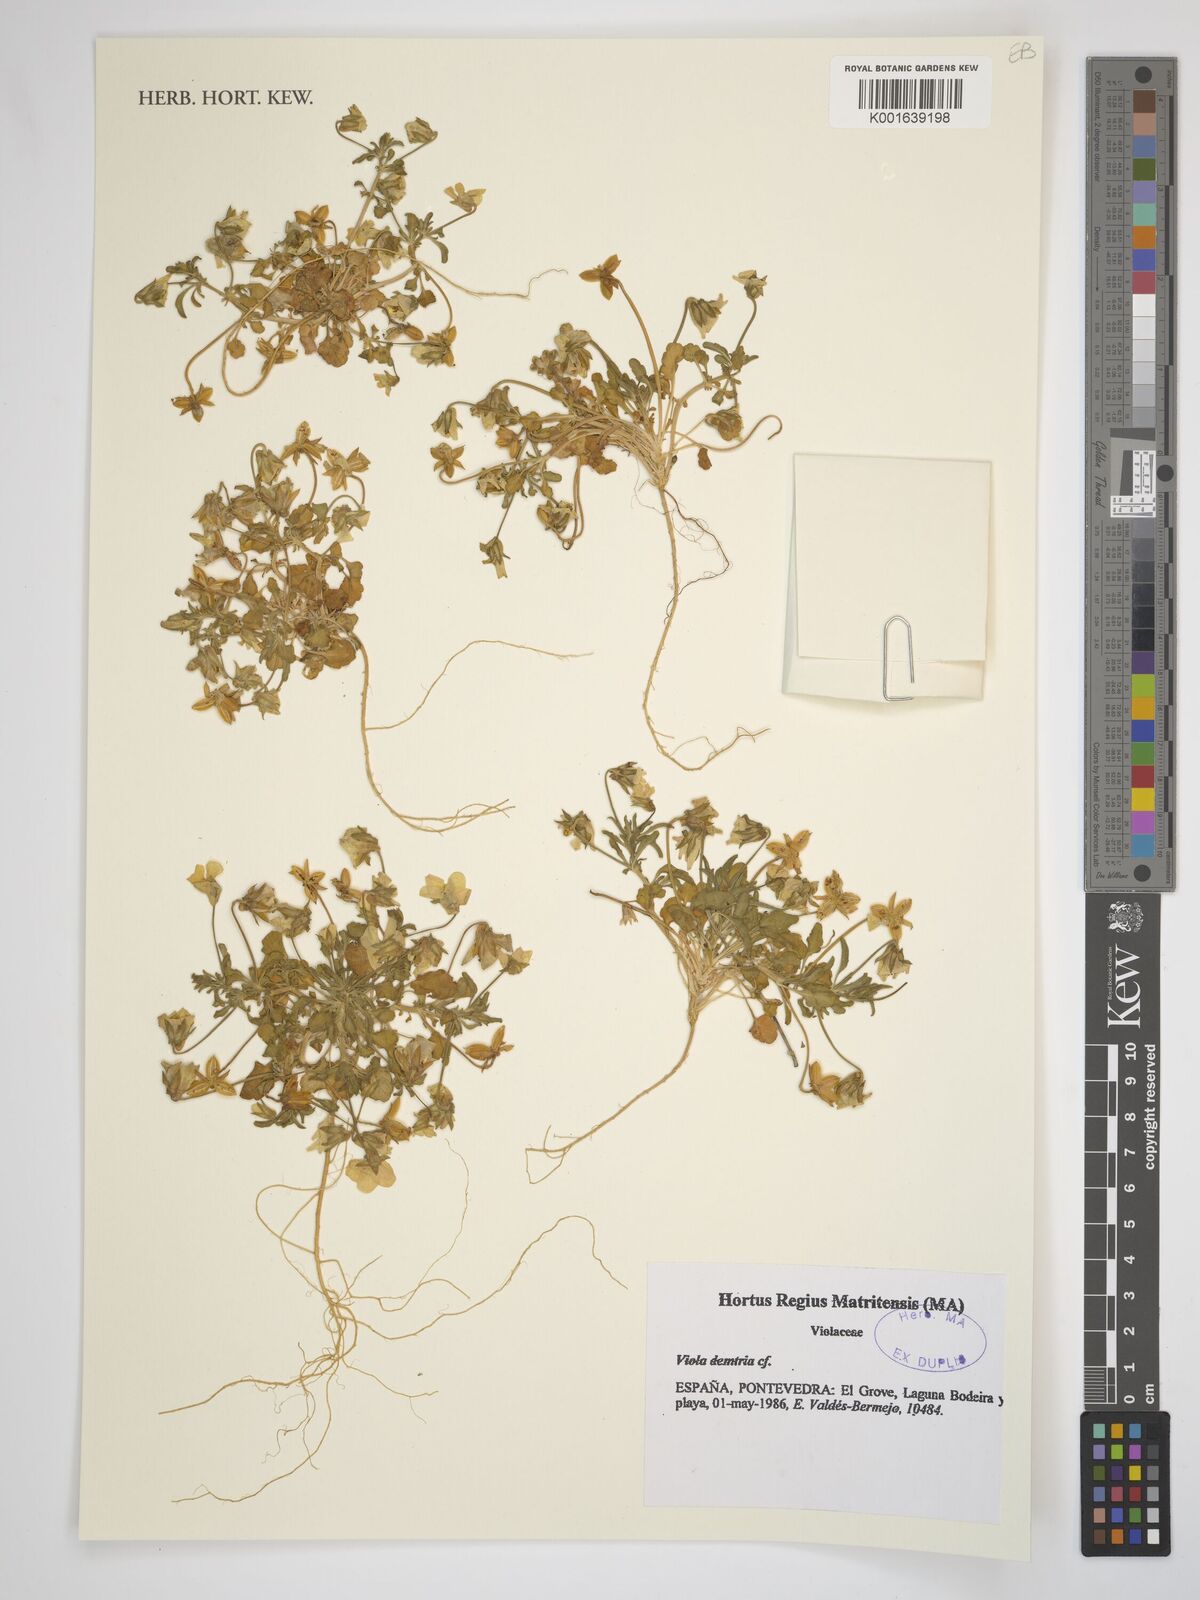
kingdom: Plantae
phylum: Tracheophyta
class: Magnoliopsida
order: Malpighiales
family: Violaceae
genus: Viola
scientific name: Viola demetria
